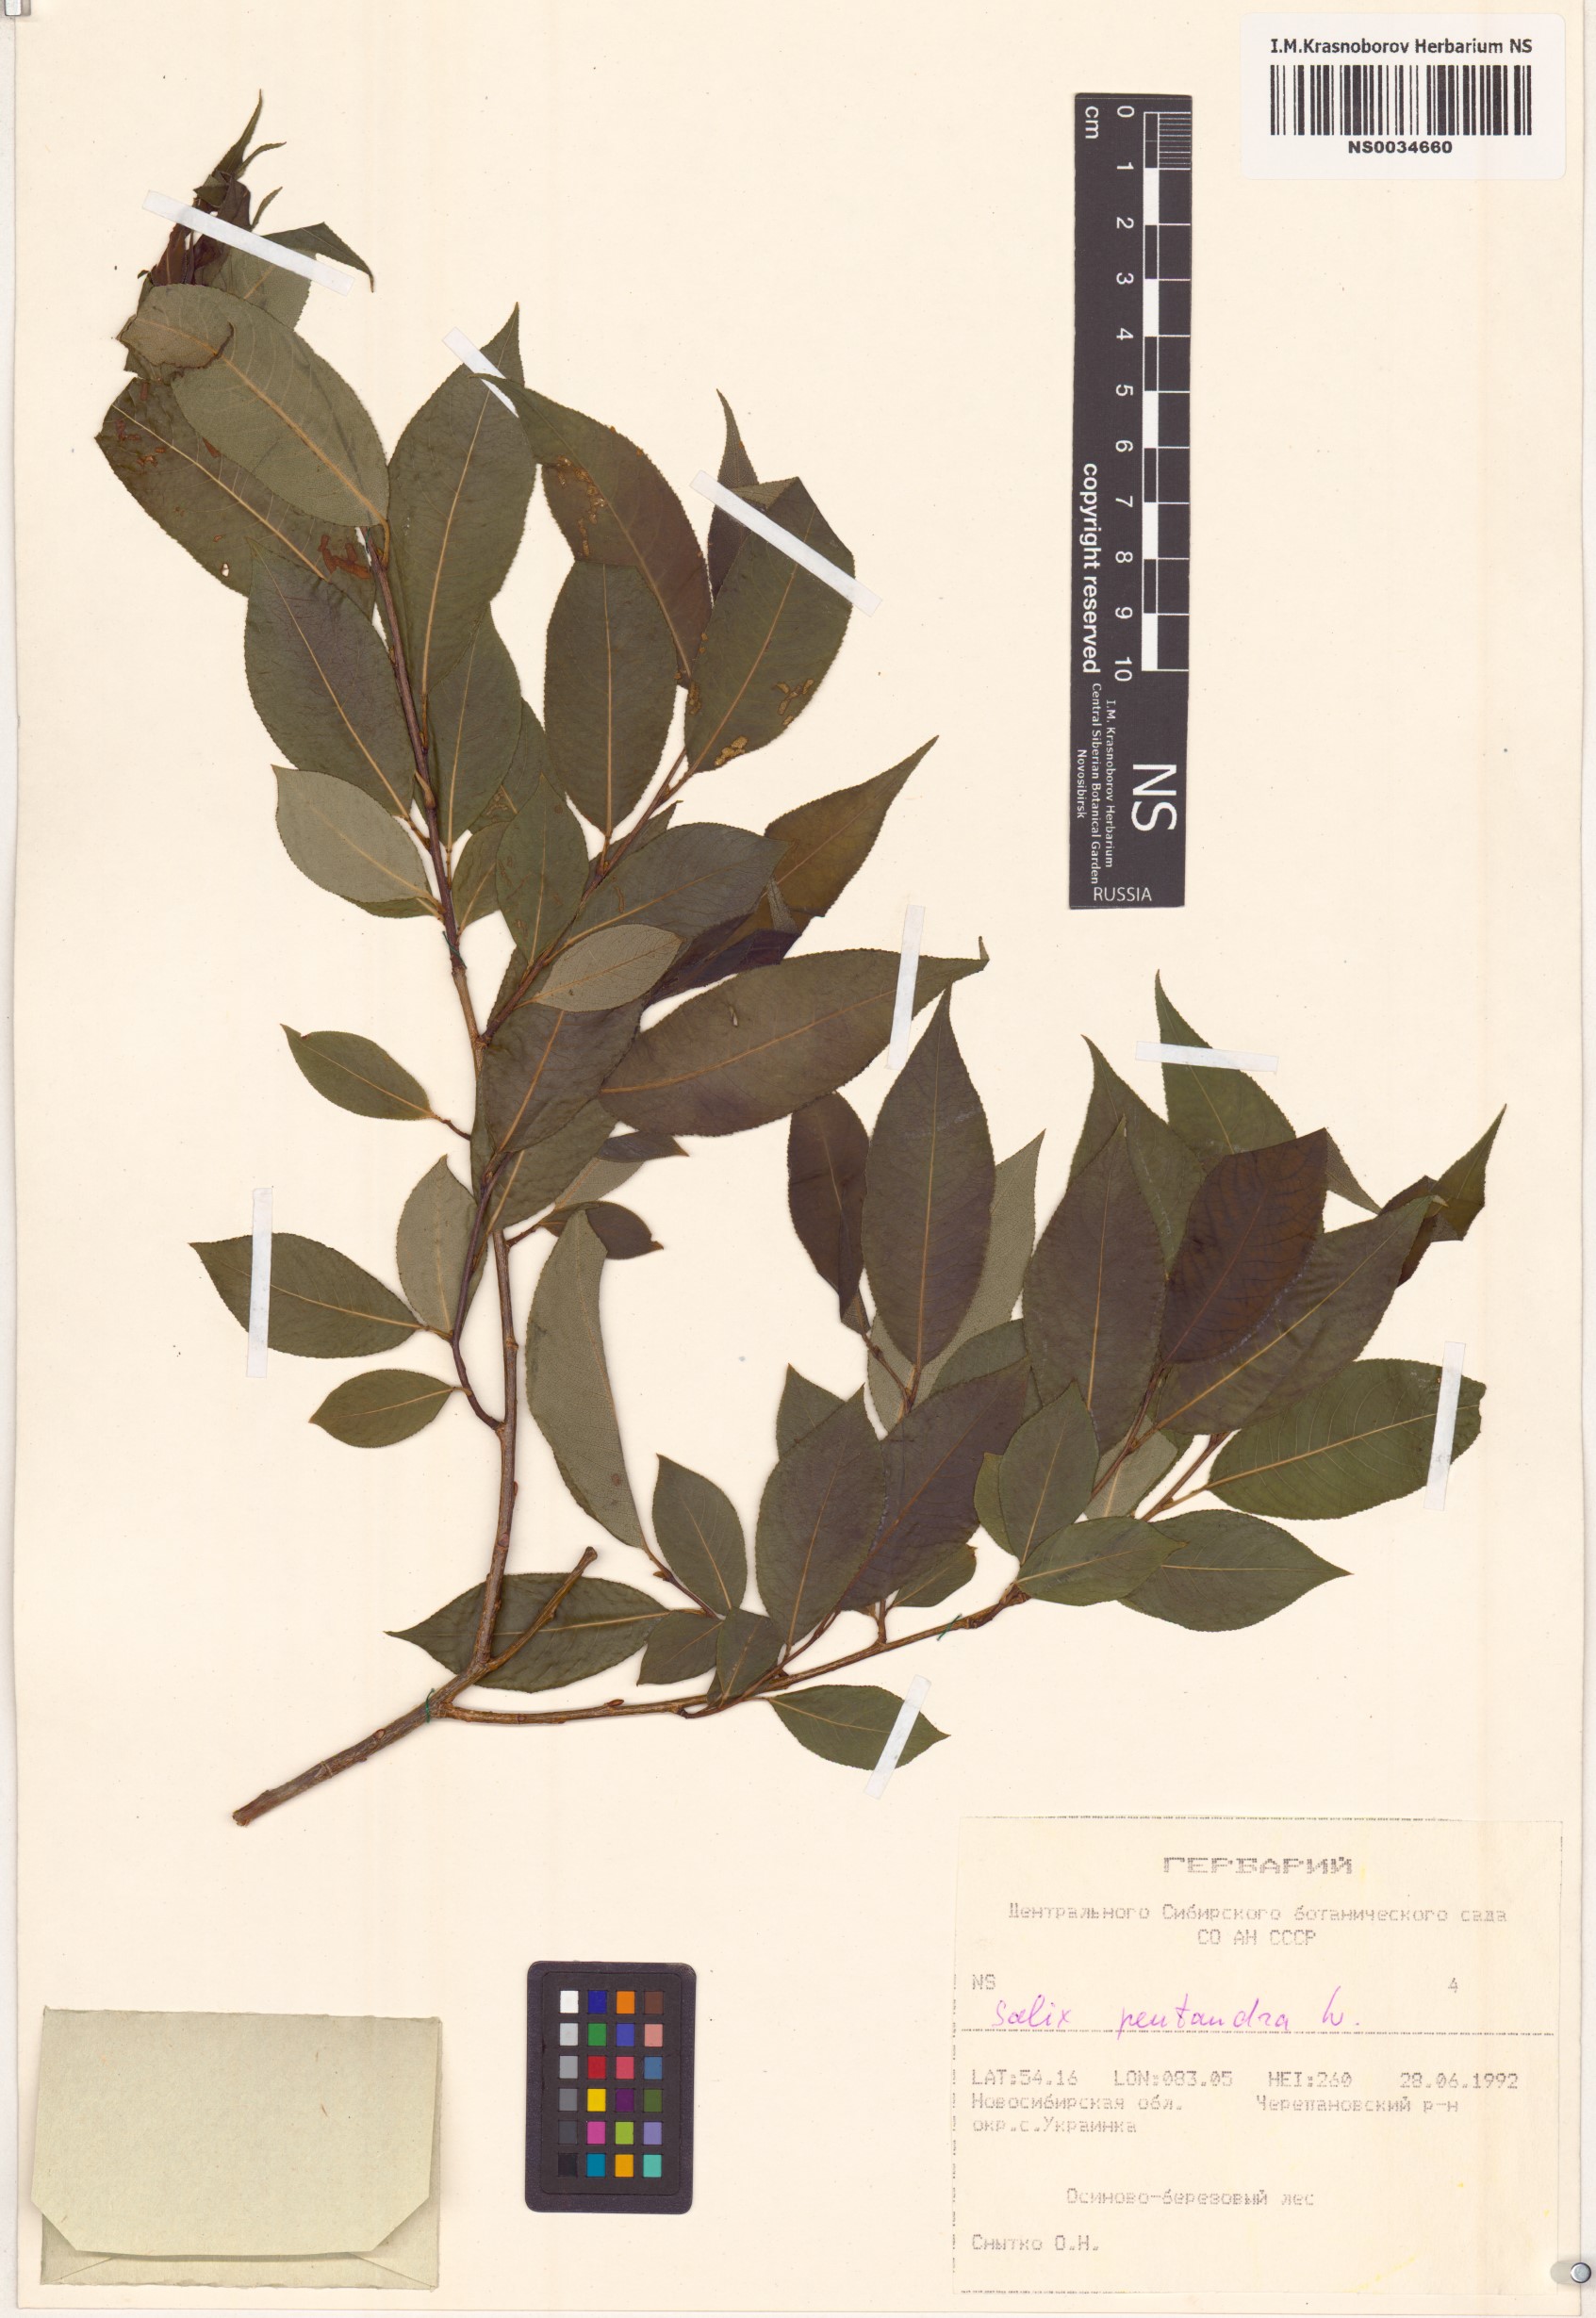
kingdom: Plantae
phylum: Tracheophyta
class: Magnoliopsida
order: Malpighiales
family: Salicaceae
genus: Salix
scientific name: Salix pentandra
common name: Bay willow
